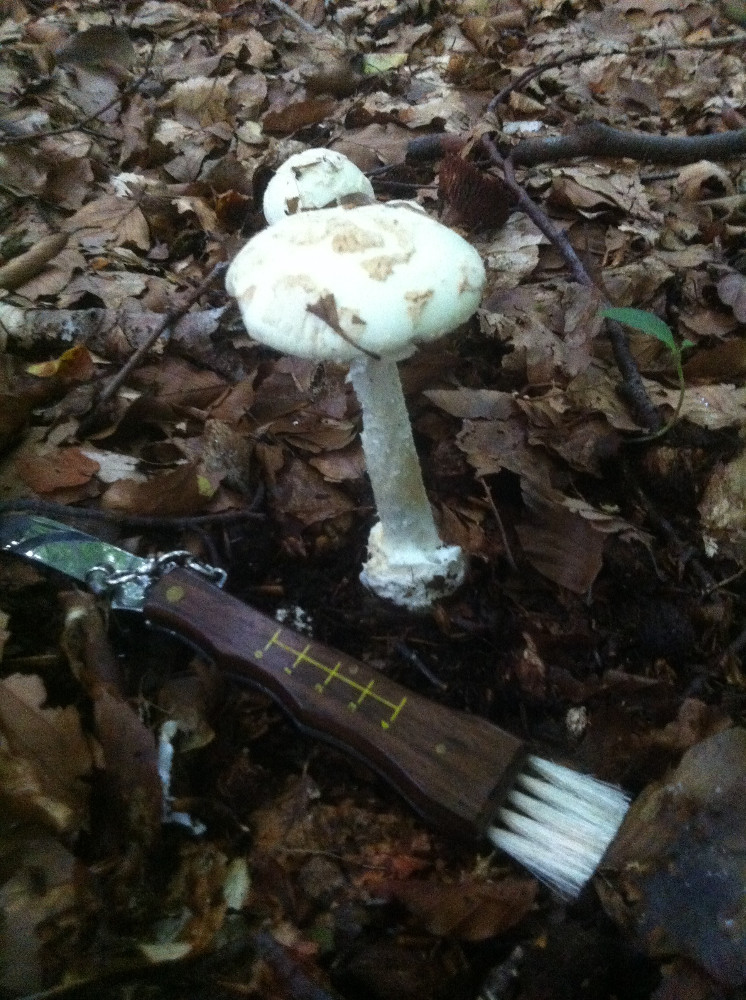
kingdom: Fungi
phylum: Basidiomycota
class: Agaricomycetes
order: Agaricales
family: Amanitaceae
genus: Amanita
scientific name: Amanita citrina
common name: kugleknoldet fluesvamp
